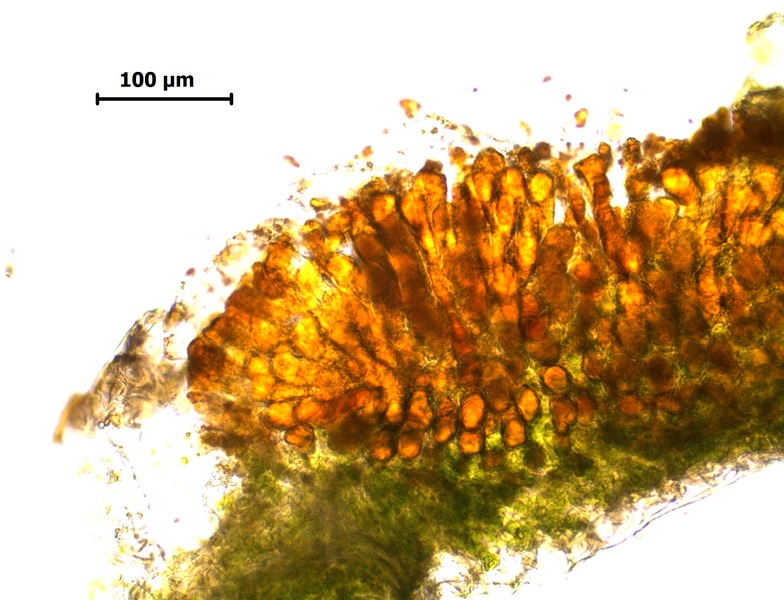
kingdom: Fungi
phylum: Basidiomycota
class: Pucciniomycetes
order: Pucciniales
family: Coleosporiaceae
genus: Coleosporium
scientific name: Coleosporium tussilaginis
